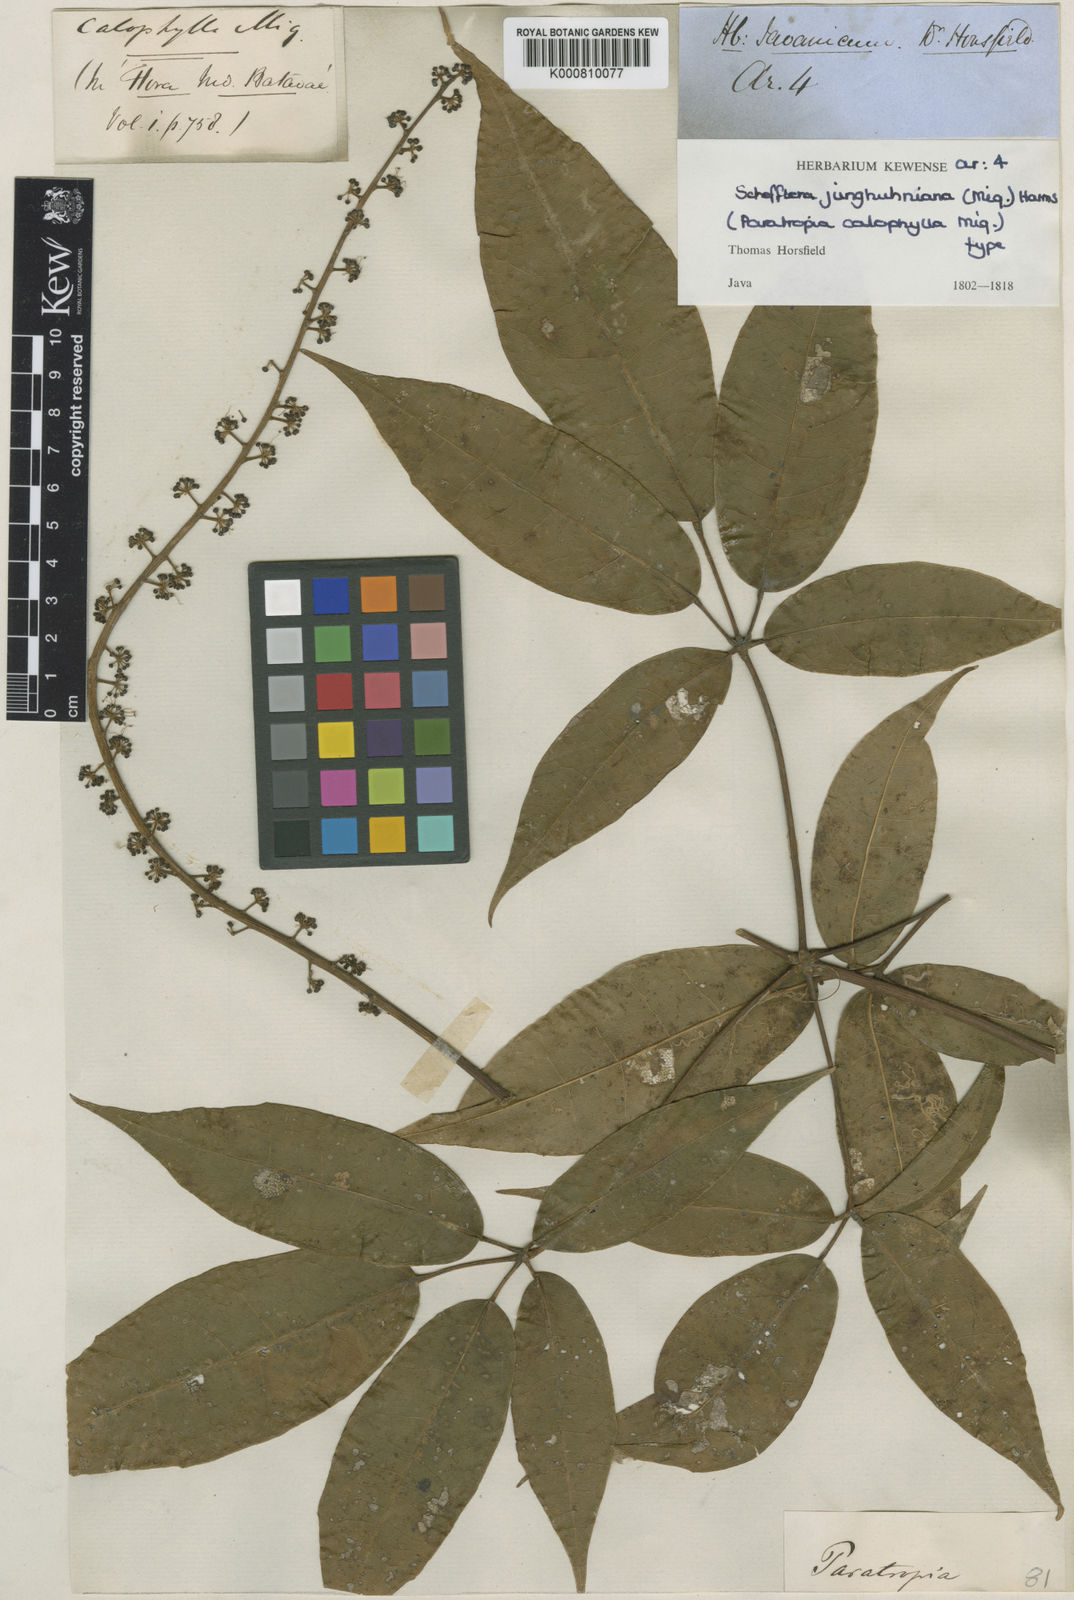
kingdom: Plantae
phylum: Tracheophyta
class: Magnoliopsida
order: Apiales
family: Araliaceae
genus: Heptapleurum
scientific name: Heptapleurum junghuhnianum
